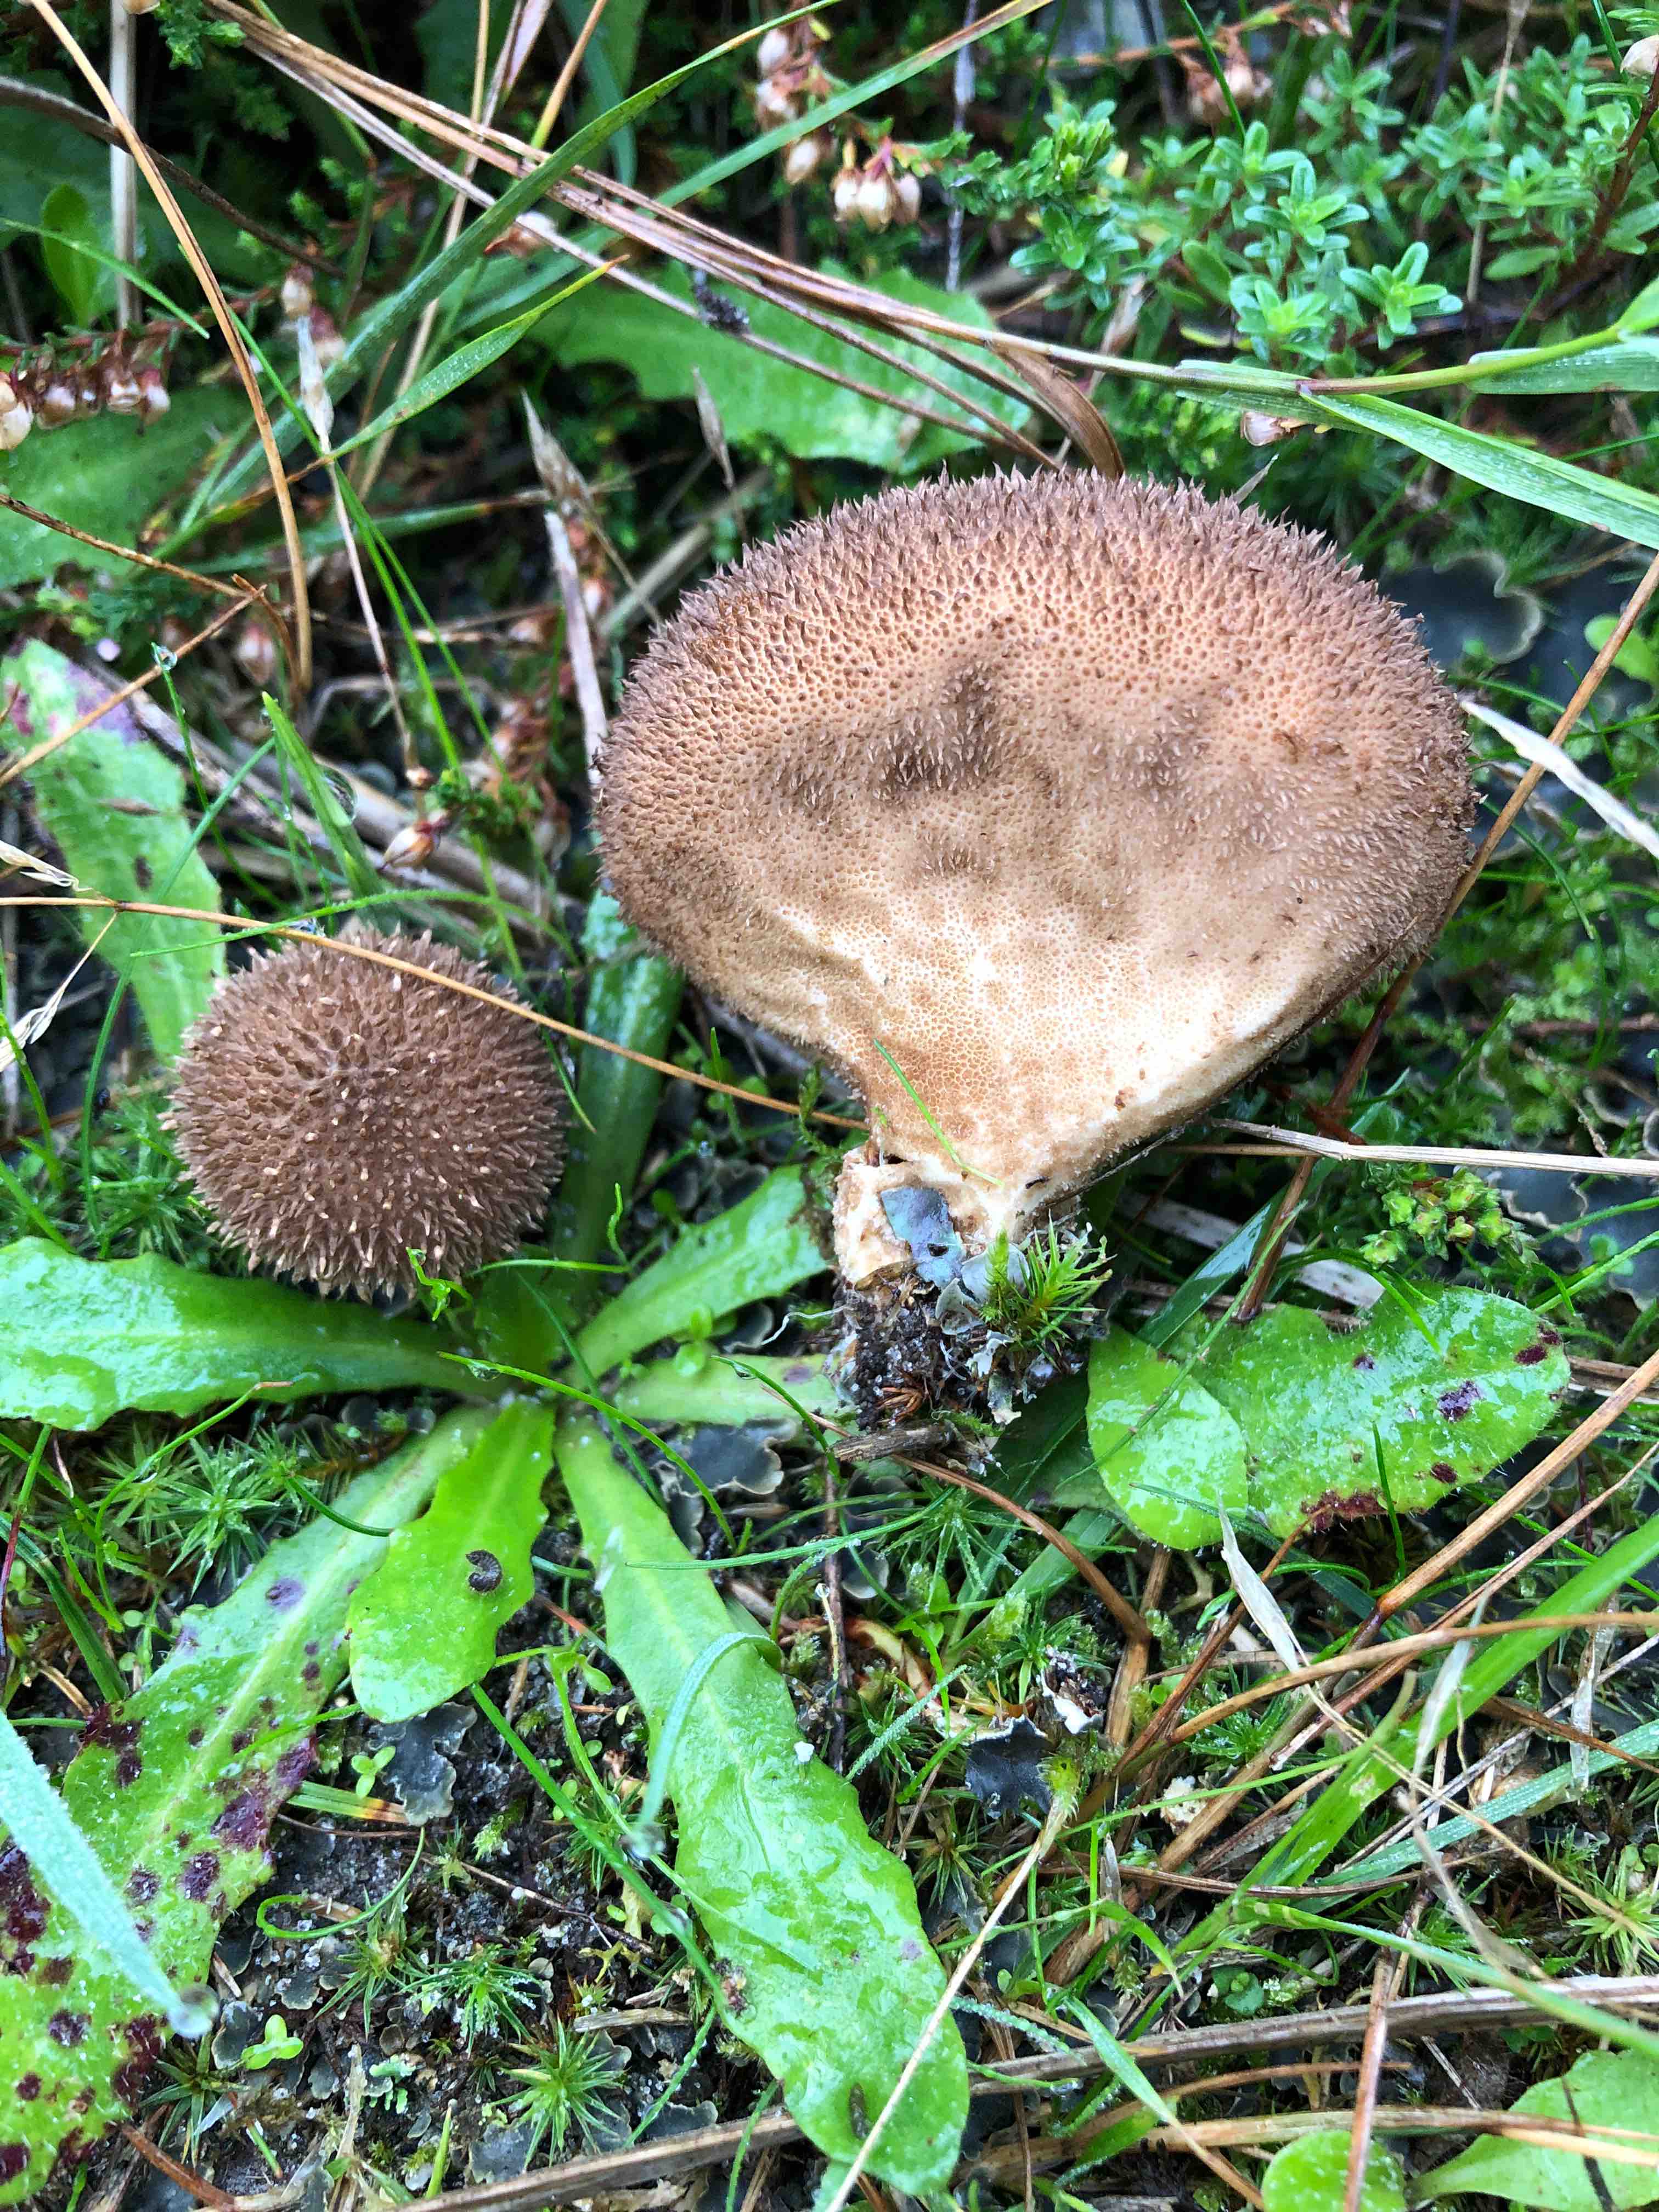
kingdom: Fungi
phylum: Basidiomycota
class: Agaricomycetes
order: Agaricales
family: Lycoperdaceae
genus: Lycoperdon
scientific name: Lycoperdon nigrescens
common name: sortagtig støvbold
